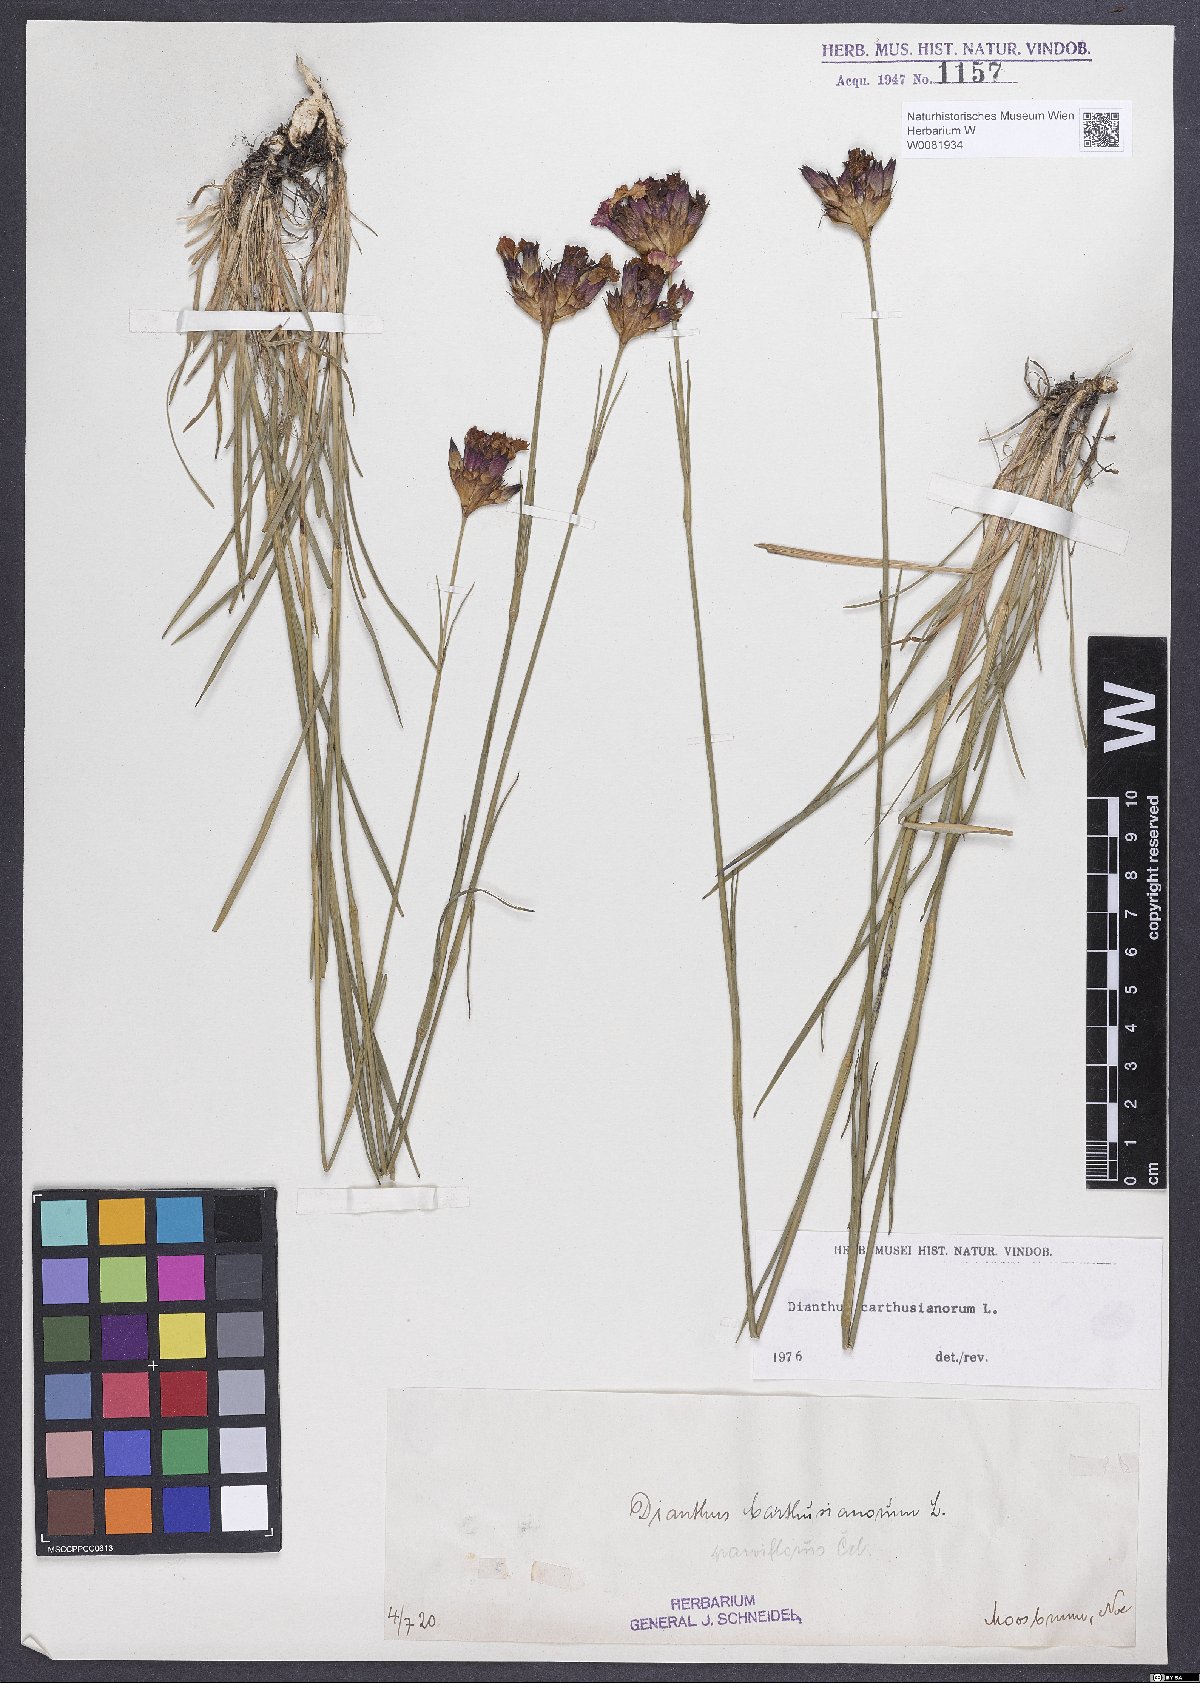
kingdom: Plantae
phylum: Tracheophyta
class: Magnoliopsida
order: Caryophyllales
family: Caryophyllaceae
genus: Dianthus
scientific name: Dianthus carthusianorum
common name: Carthusian pink
